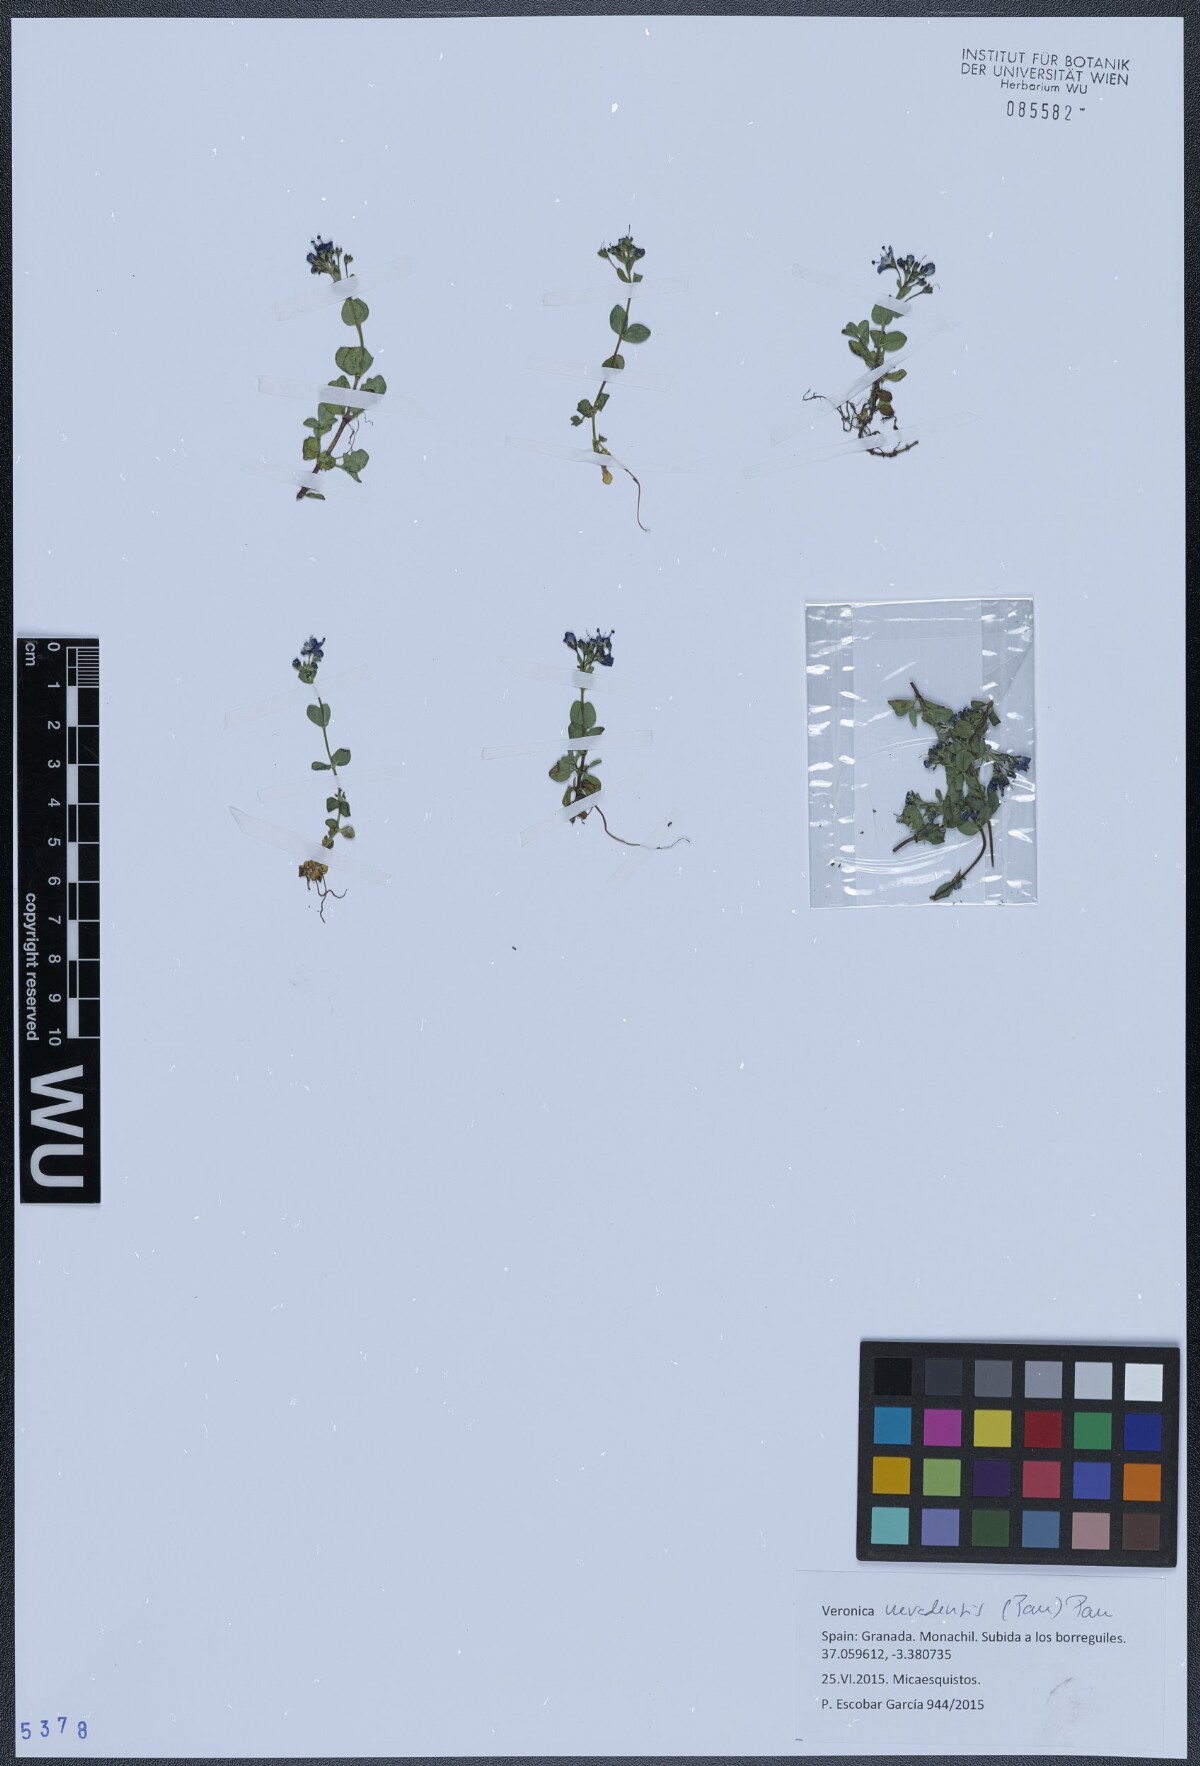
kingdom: Plantae
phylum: Tracheophyta
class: Magnoliopsida
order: Lamiales
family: Plantaginaceae
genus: Veronica
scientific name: Veronica nevadensis
